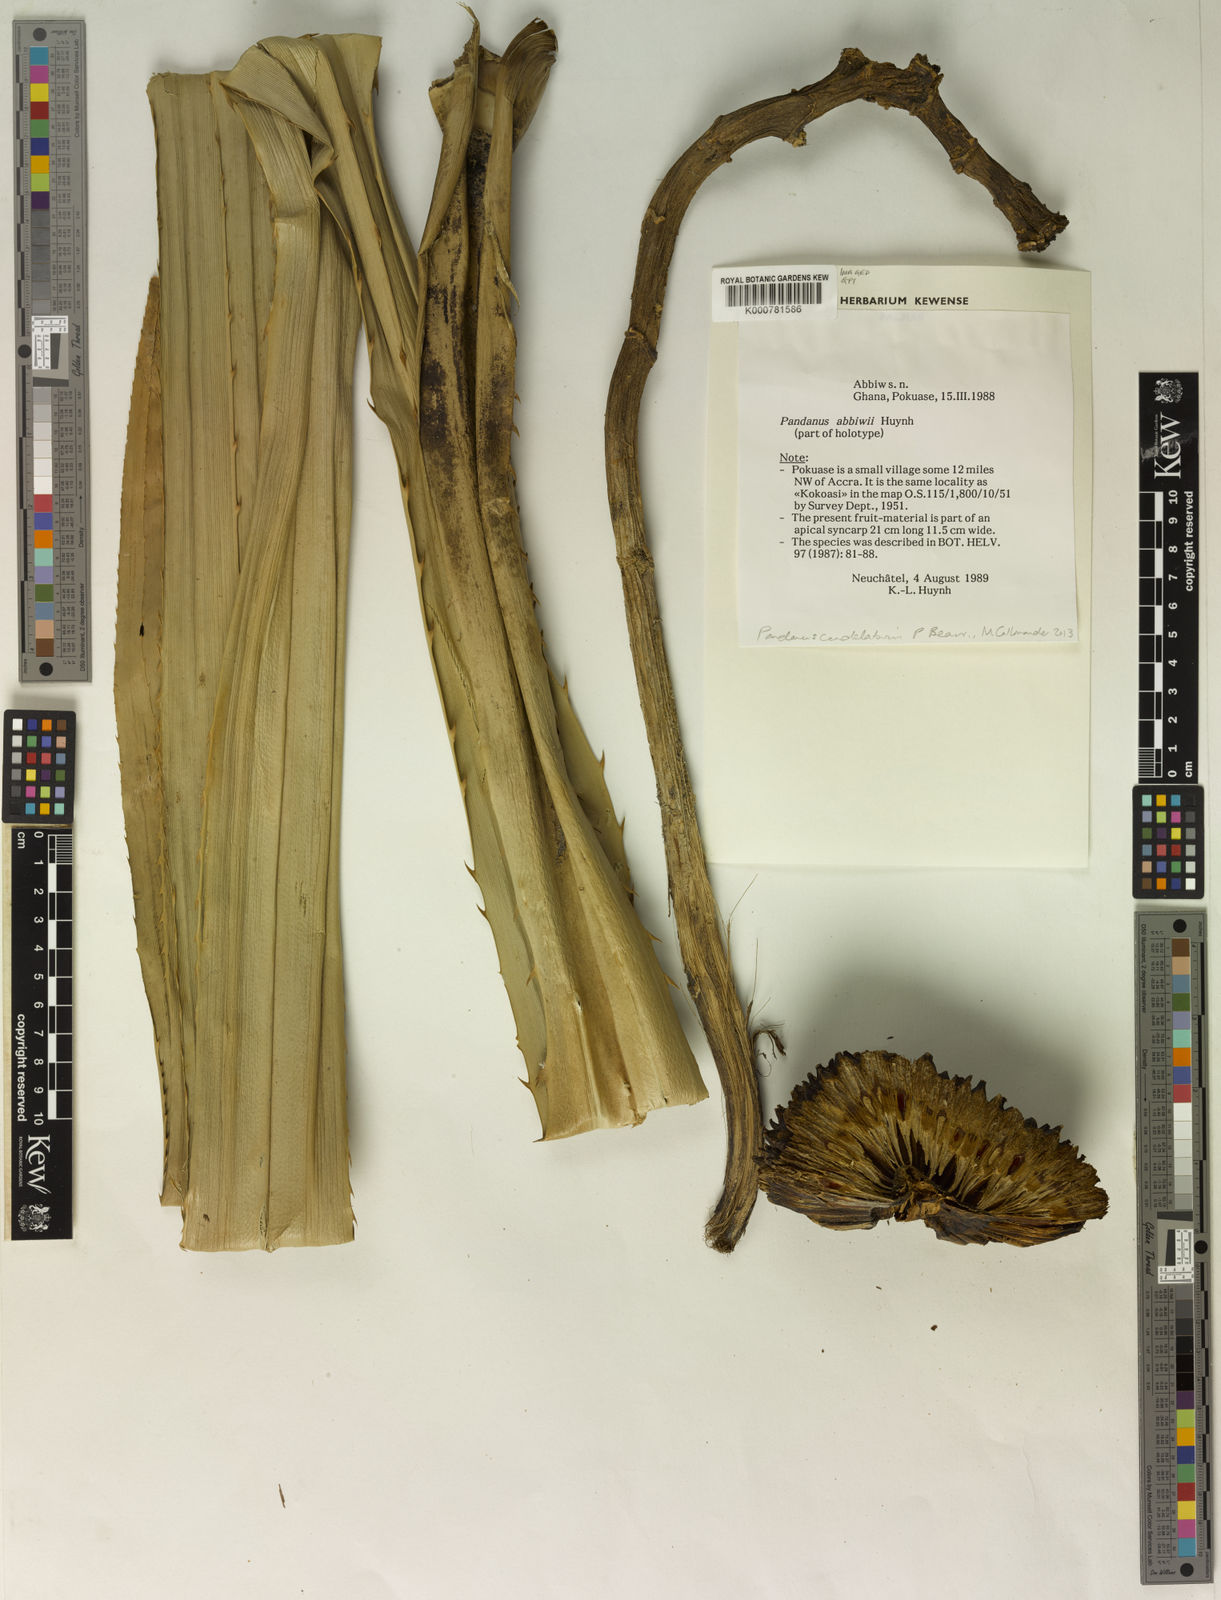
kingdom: Plantae
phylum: Tracheophyta
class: Liliopsida
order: Pandanales
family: Pandanaceae
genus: Pandanus
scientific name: Pandanus candelabrum
